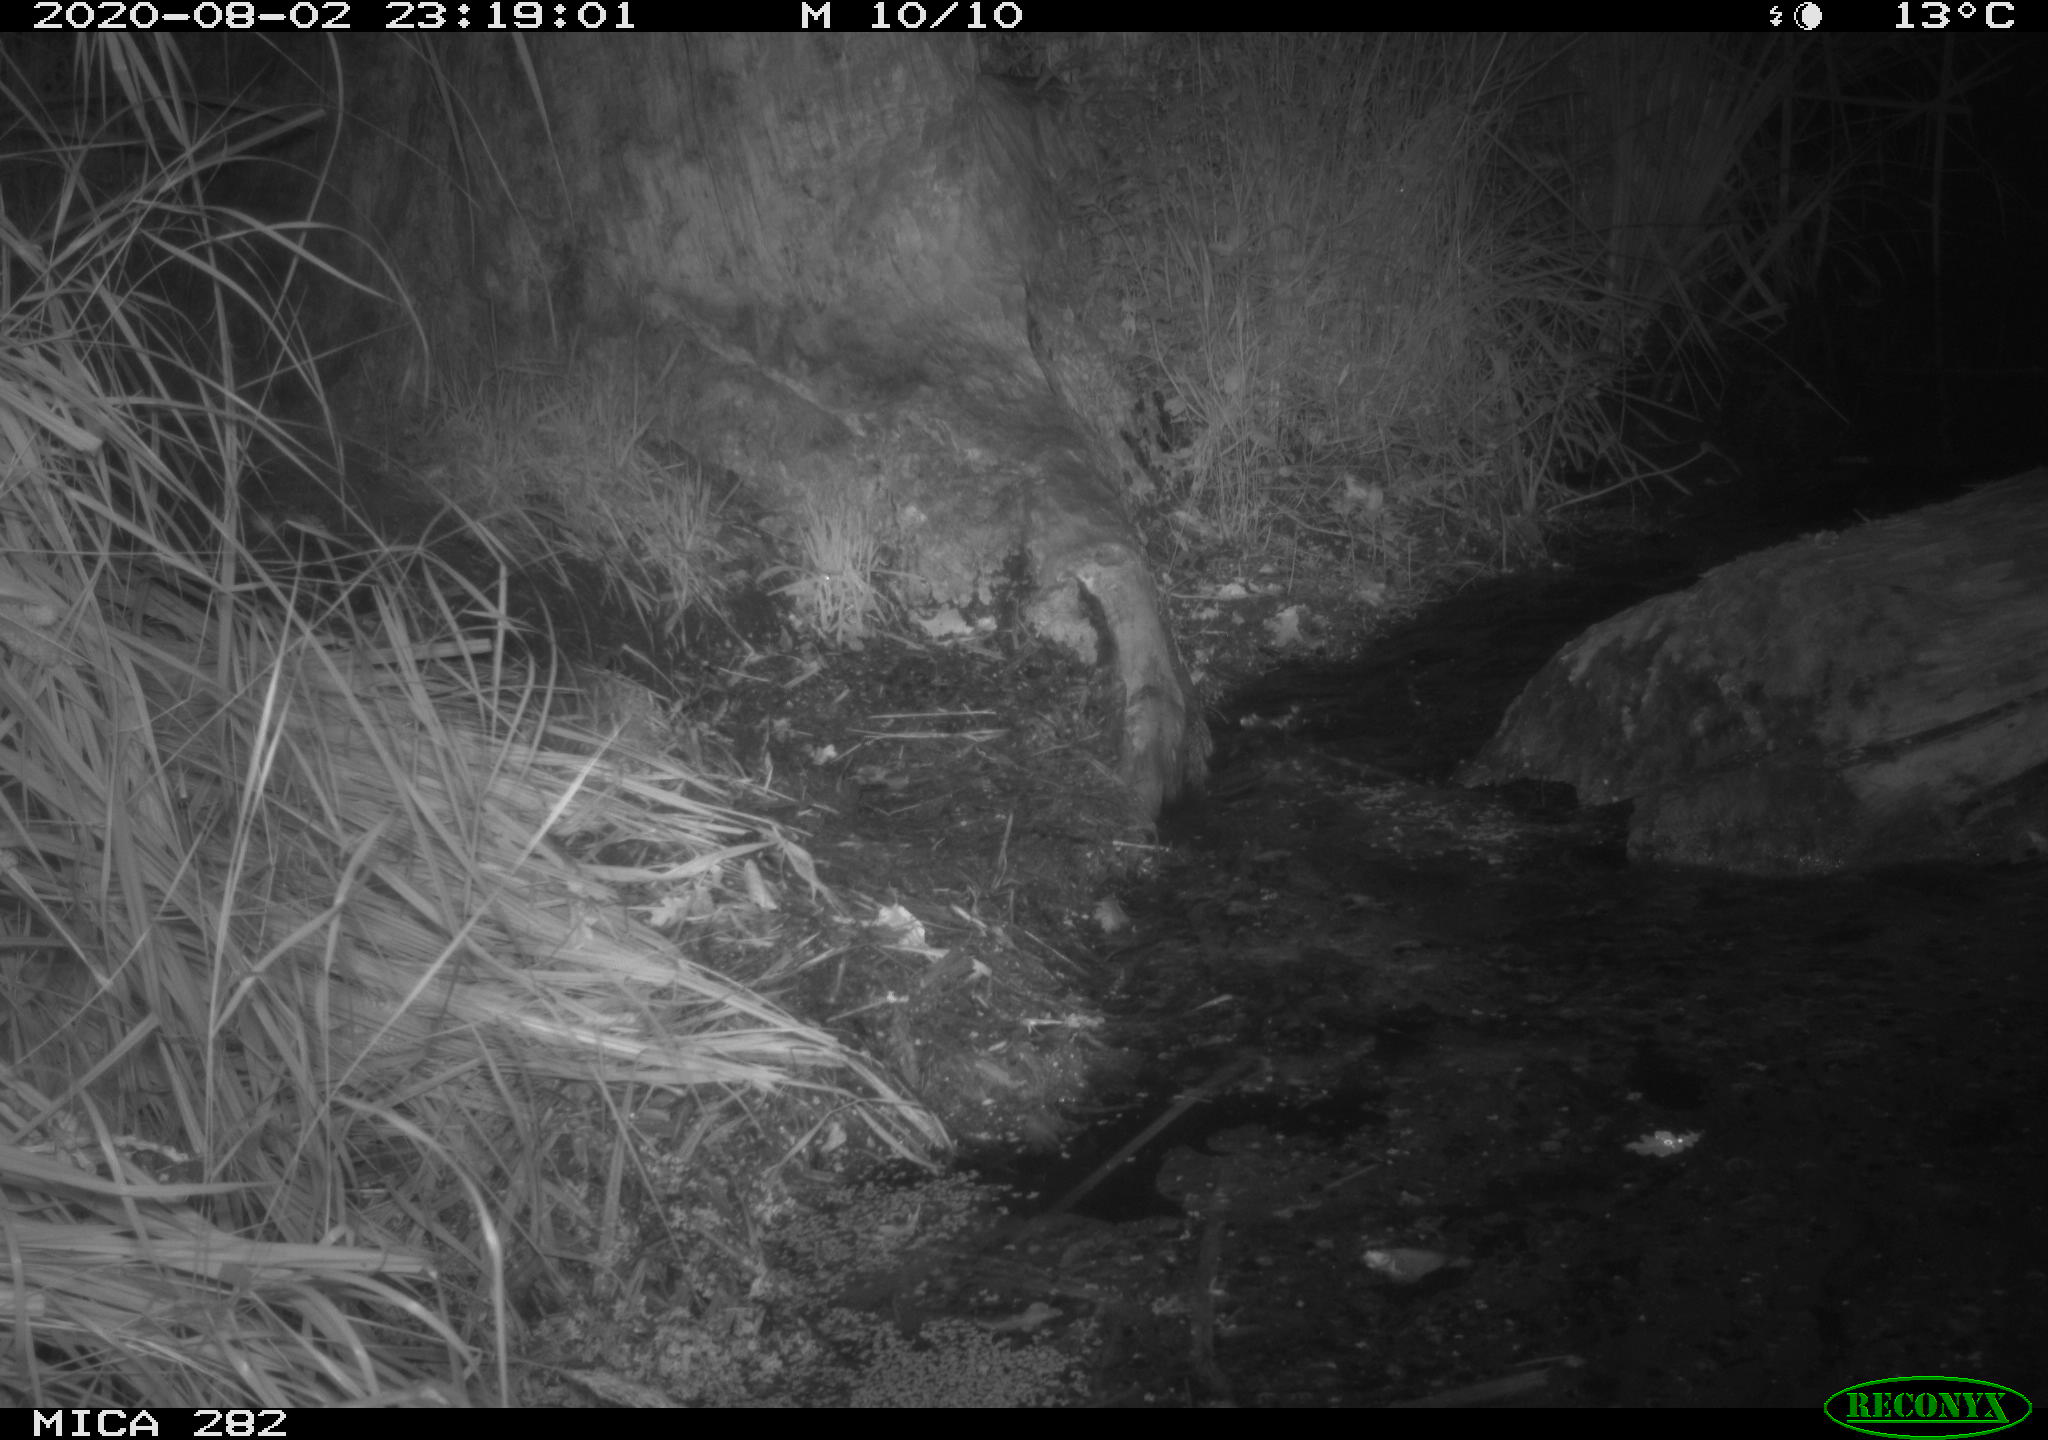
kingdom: Animalia
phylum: Chordata
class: Mammalia
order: Rodentia
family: Castoridae
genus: Castor
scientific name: Castor fiber
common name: Eurasian beaver
